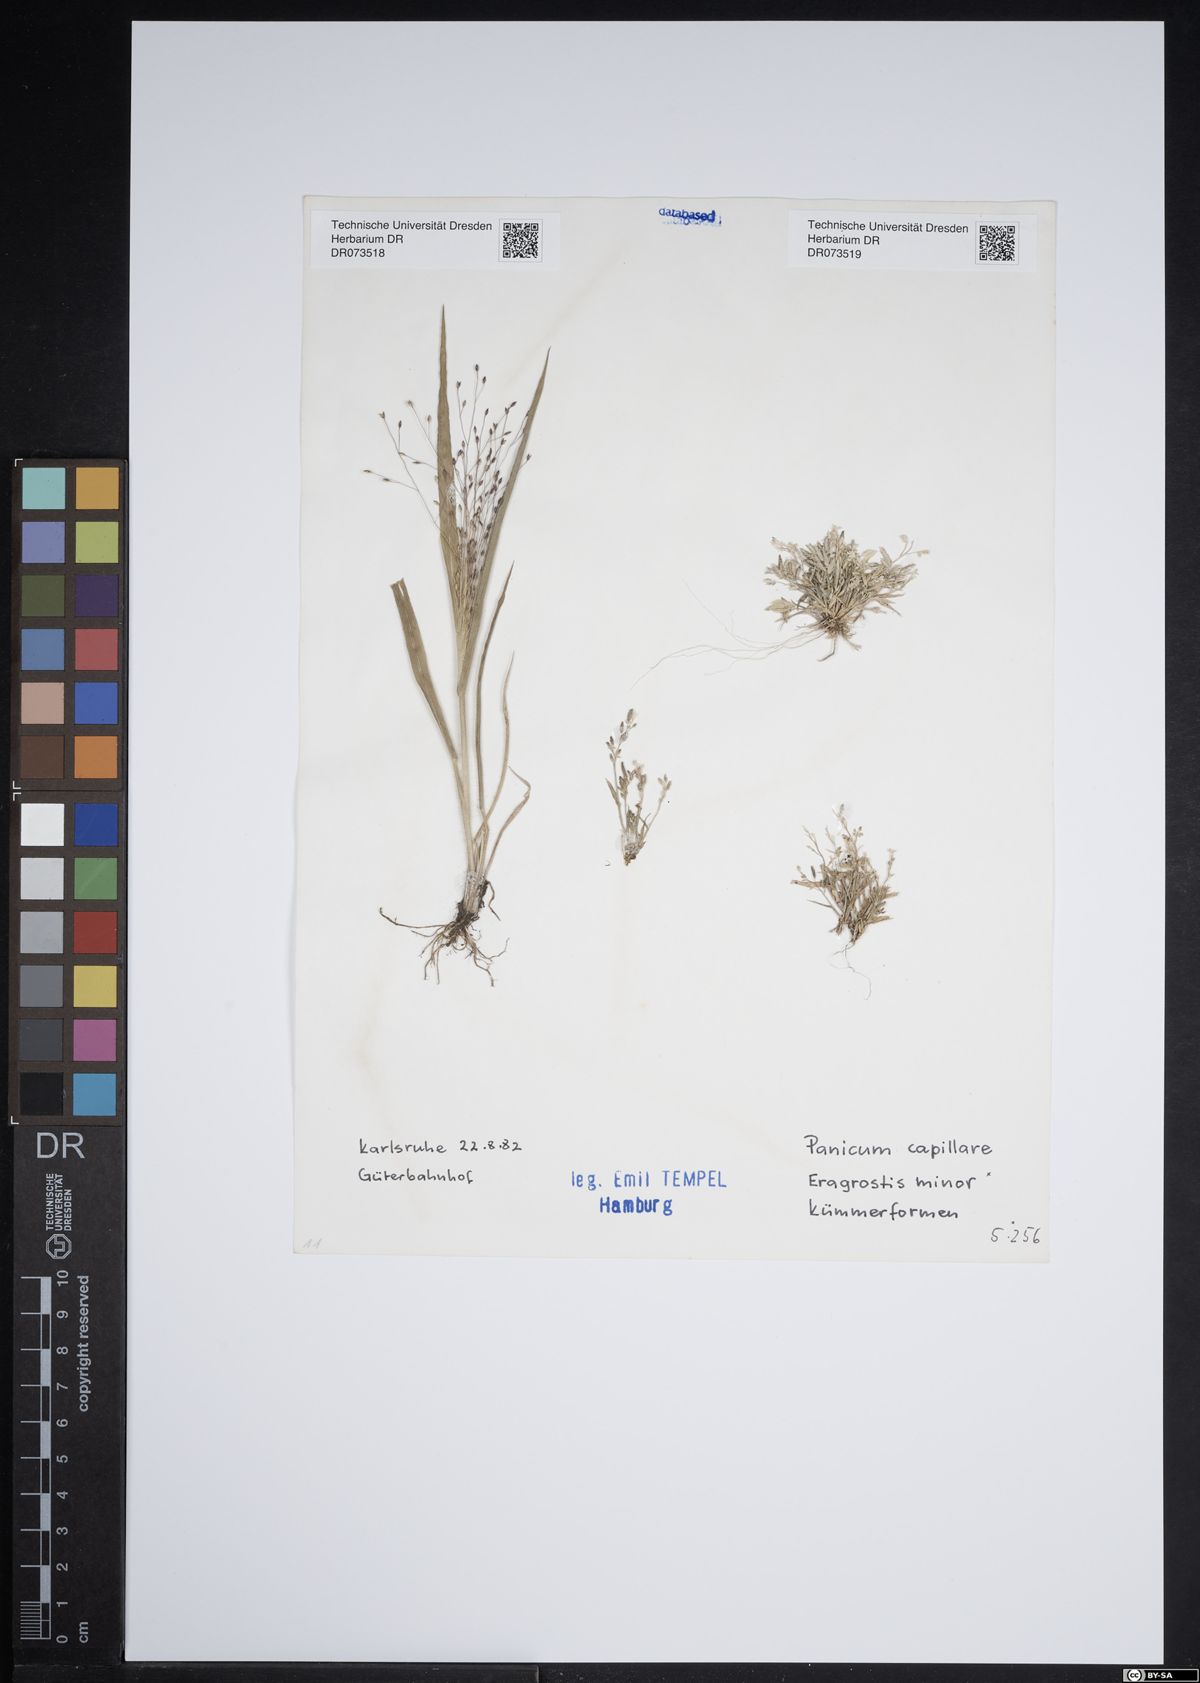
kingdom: Plantae
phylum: Tracheophyta
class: Liliopsida
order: Poales
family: Poaceae
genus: Eragrostis
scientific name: Eragrostis minor
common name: Small love-grass
